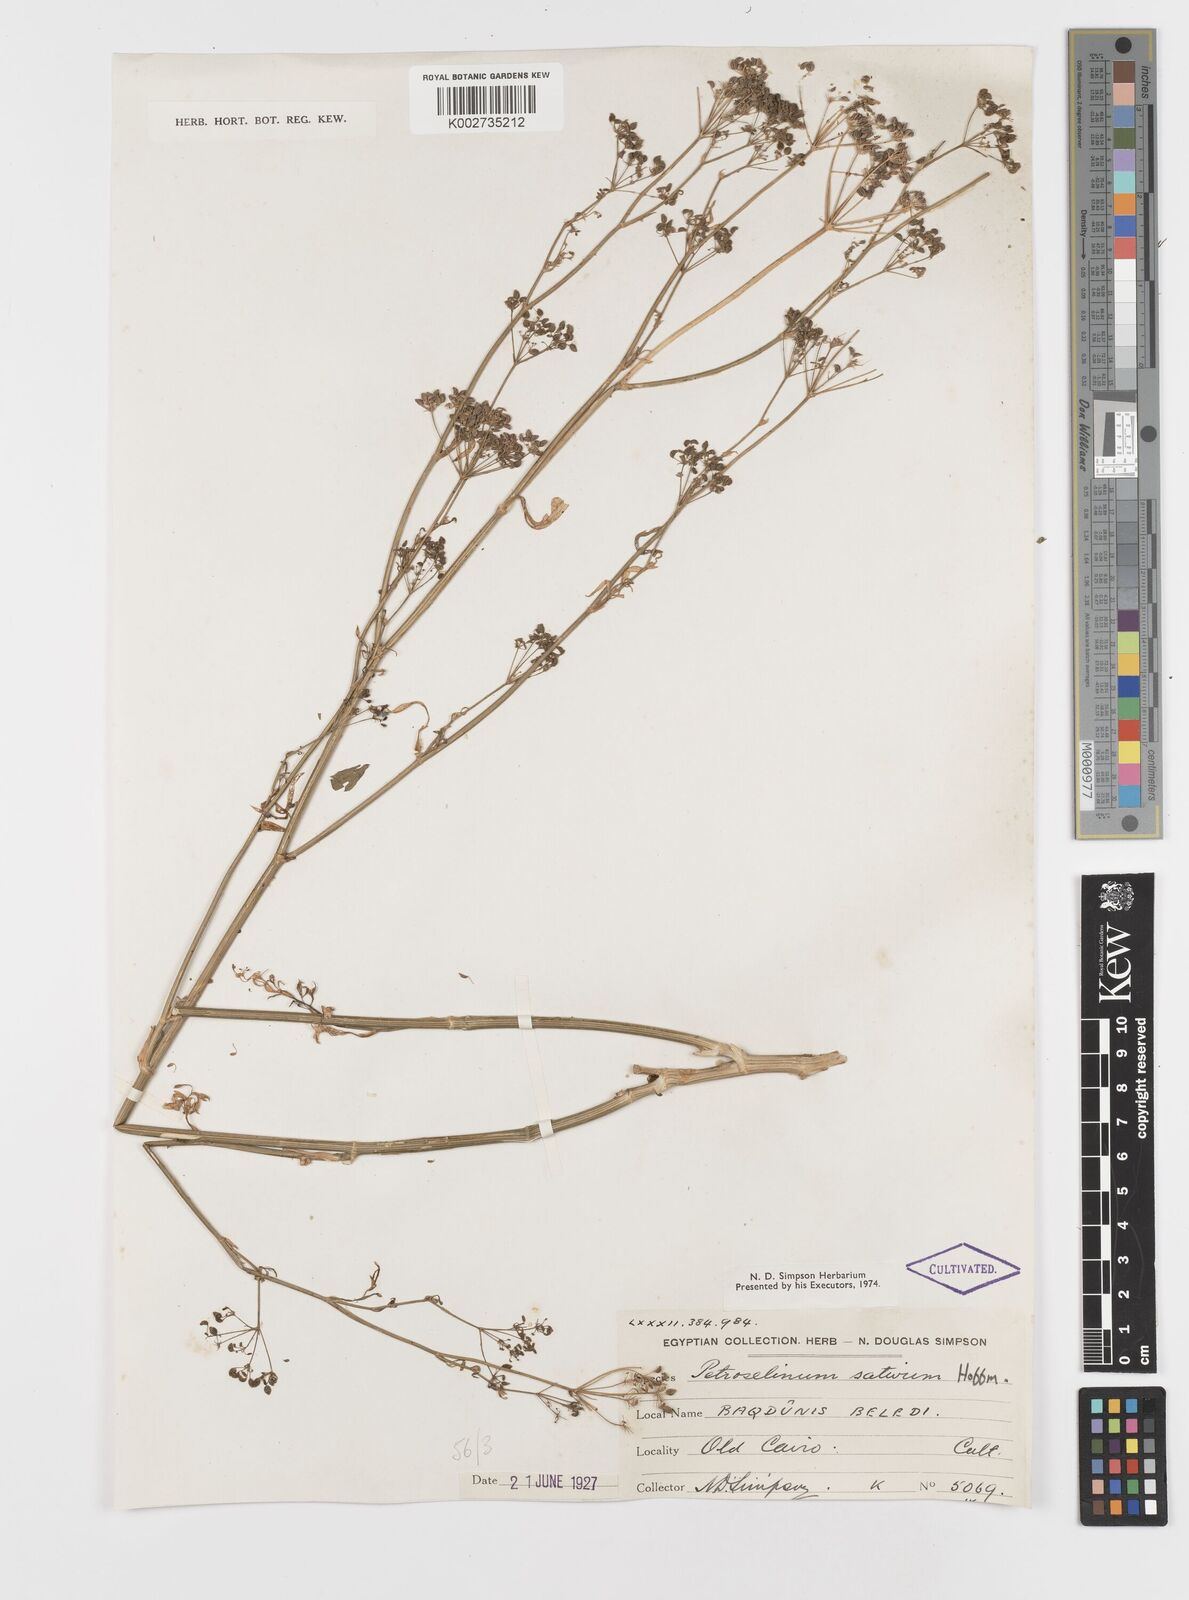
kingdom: Plantae
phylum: Tracheophyta
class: Magnoliopsida
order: Apiales
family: Apiaceae
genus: Petroselinum
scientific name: Petroselinum crispum
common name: Parsley
